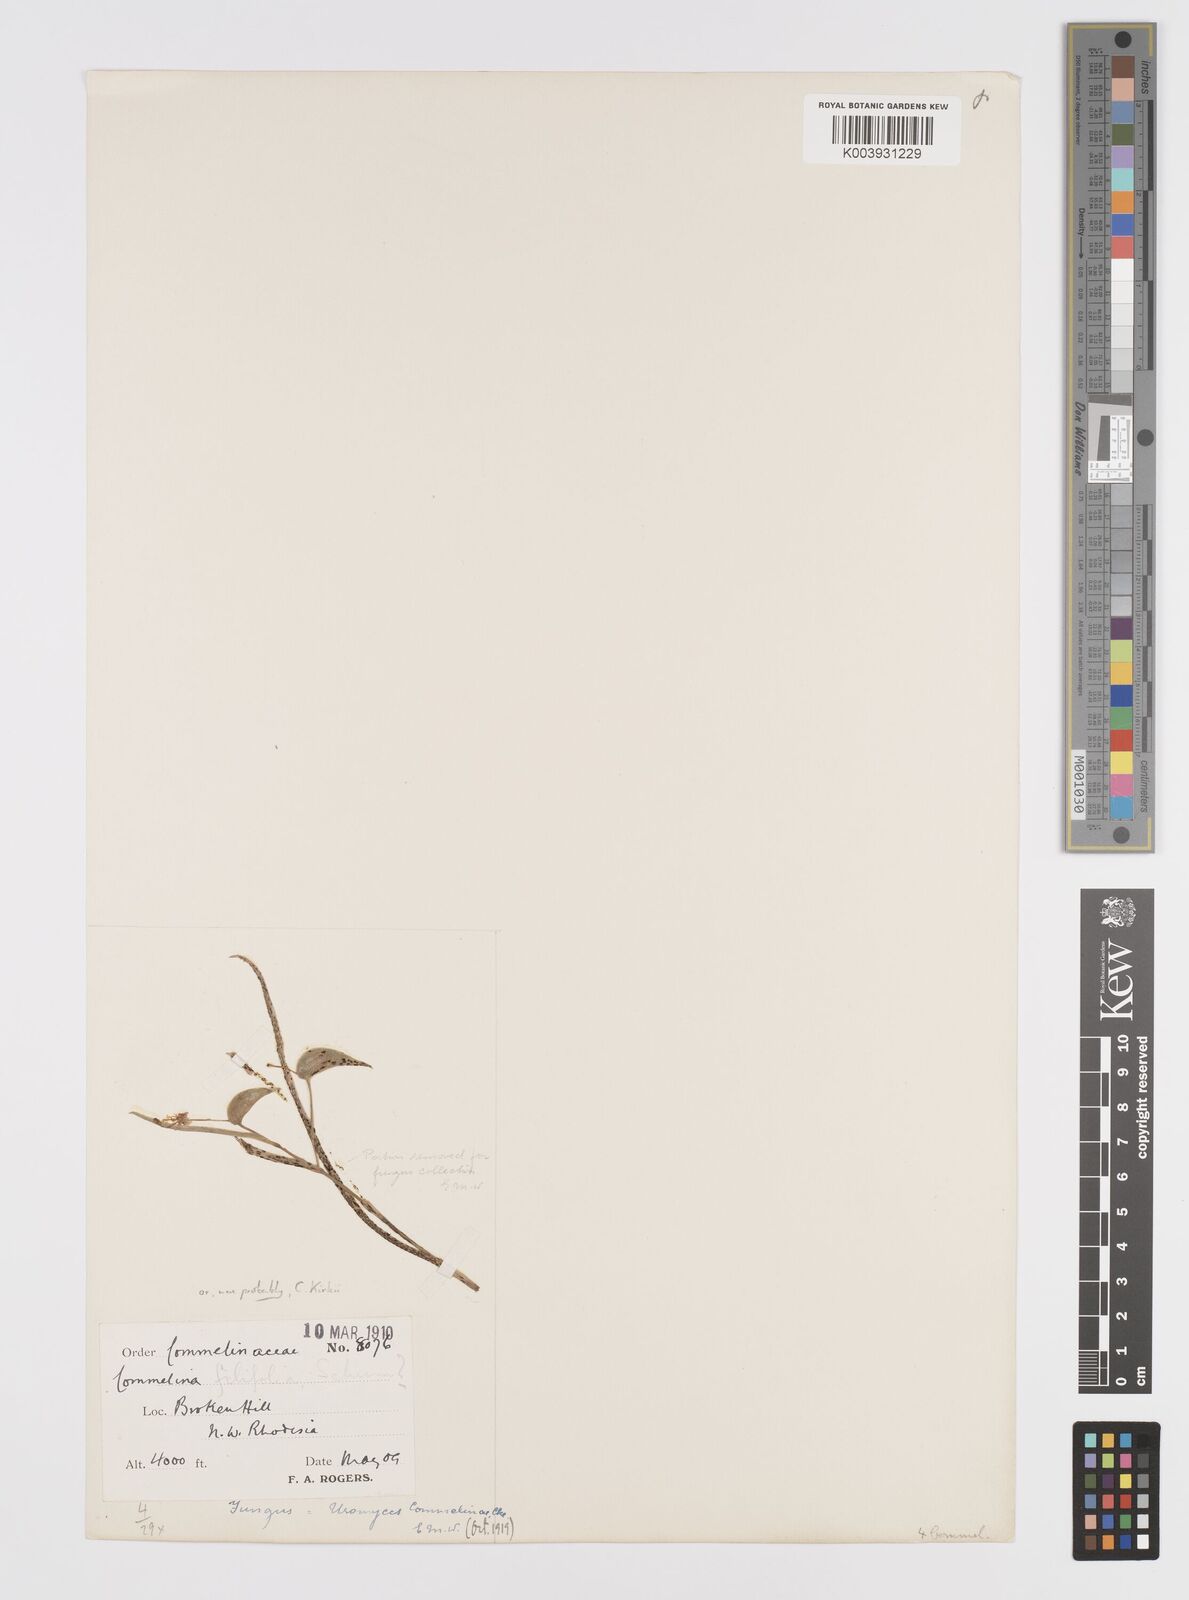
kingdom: Plantae
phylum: Tracheophyta
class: Liliopsida
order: Commelinales
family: Commelinaceae
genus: Commelina
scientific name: Commelina welwitschii
